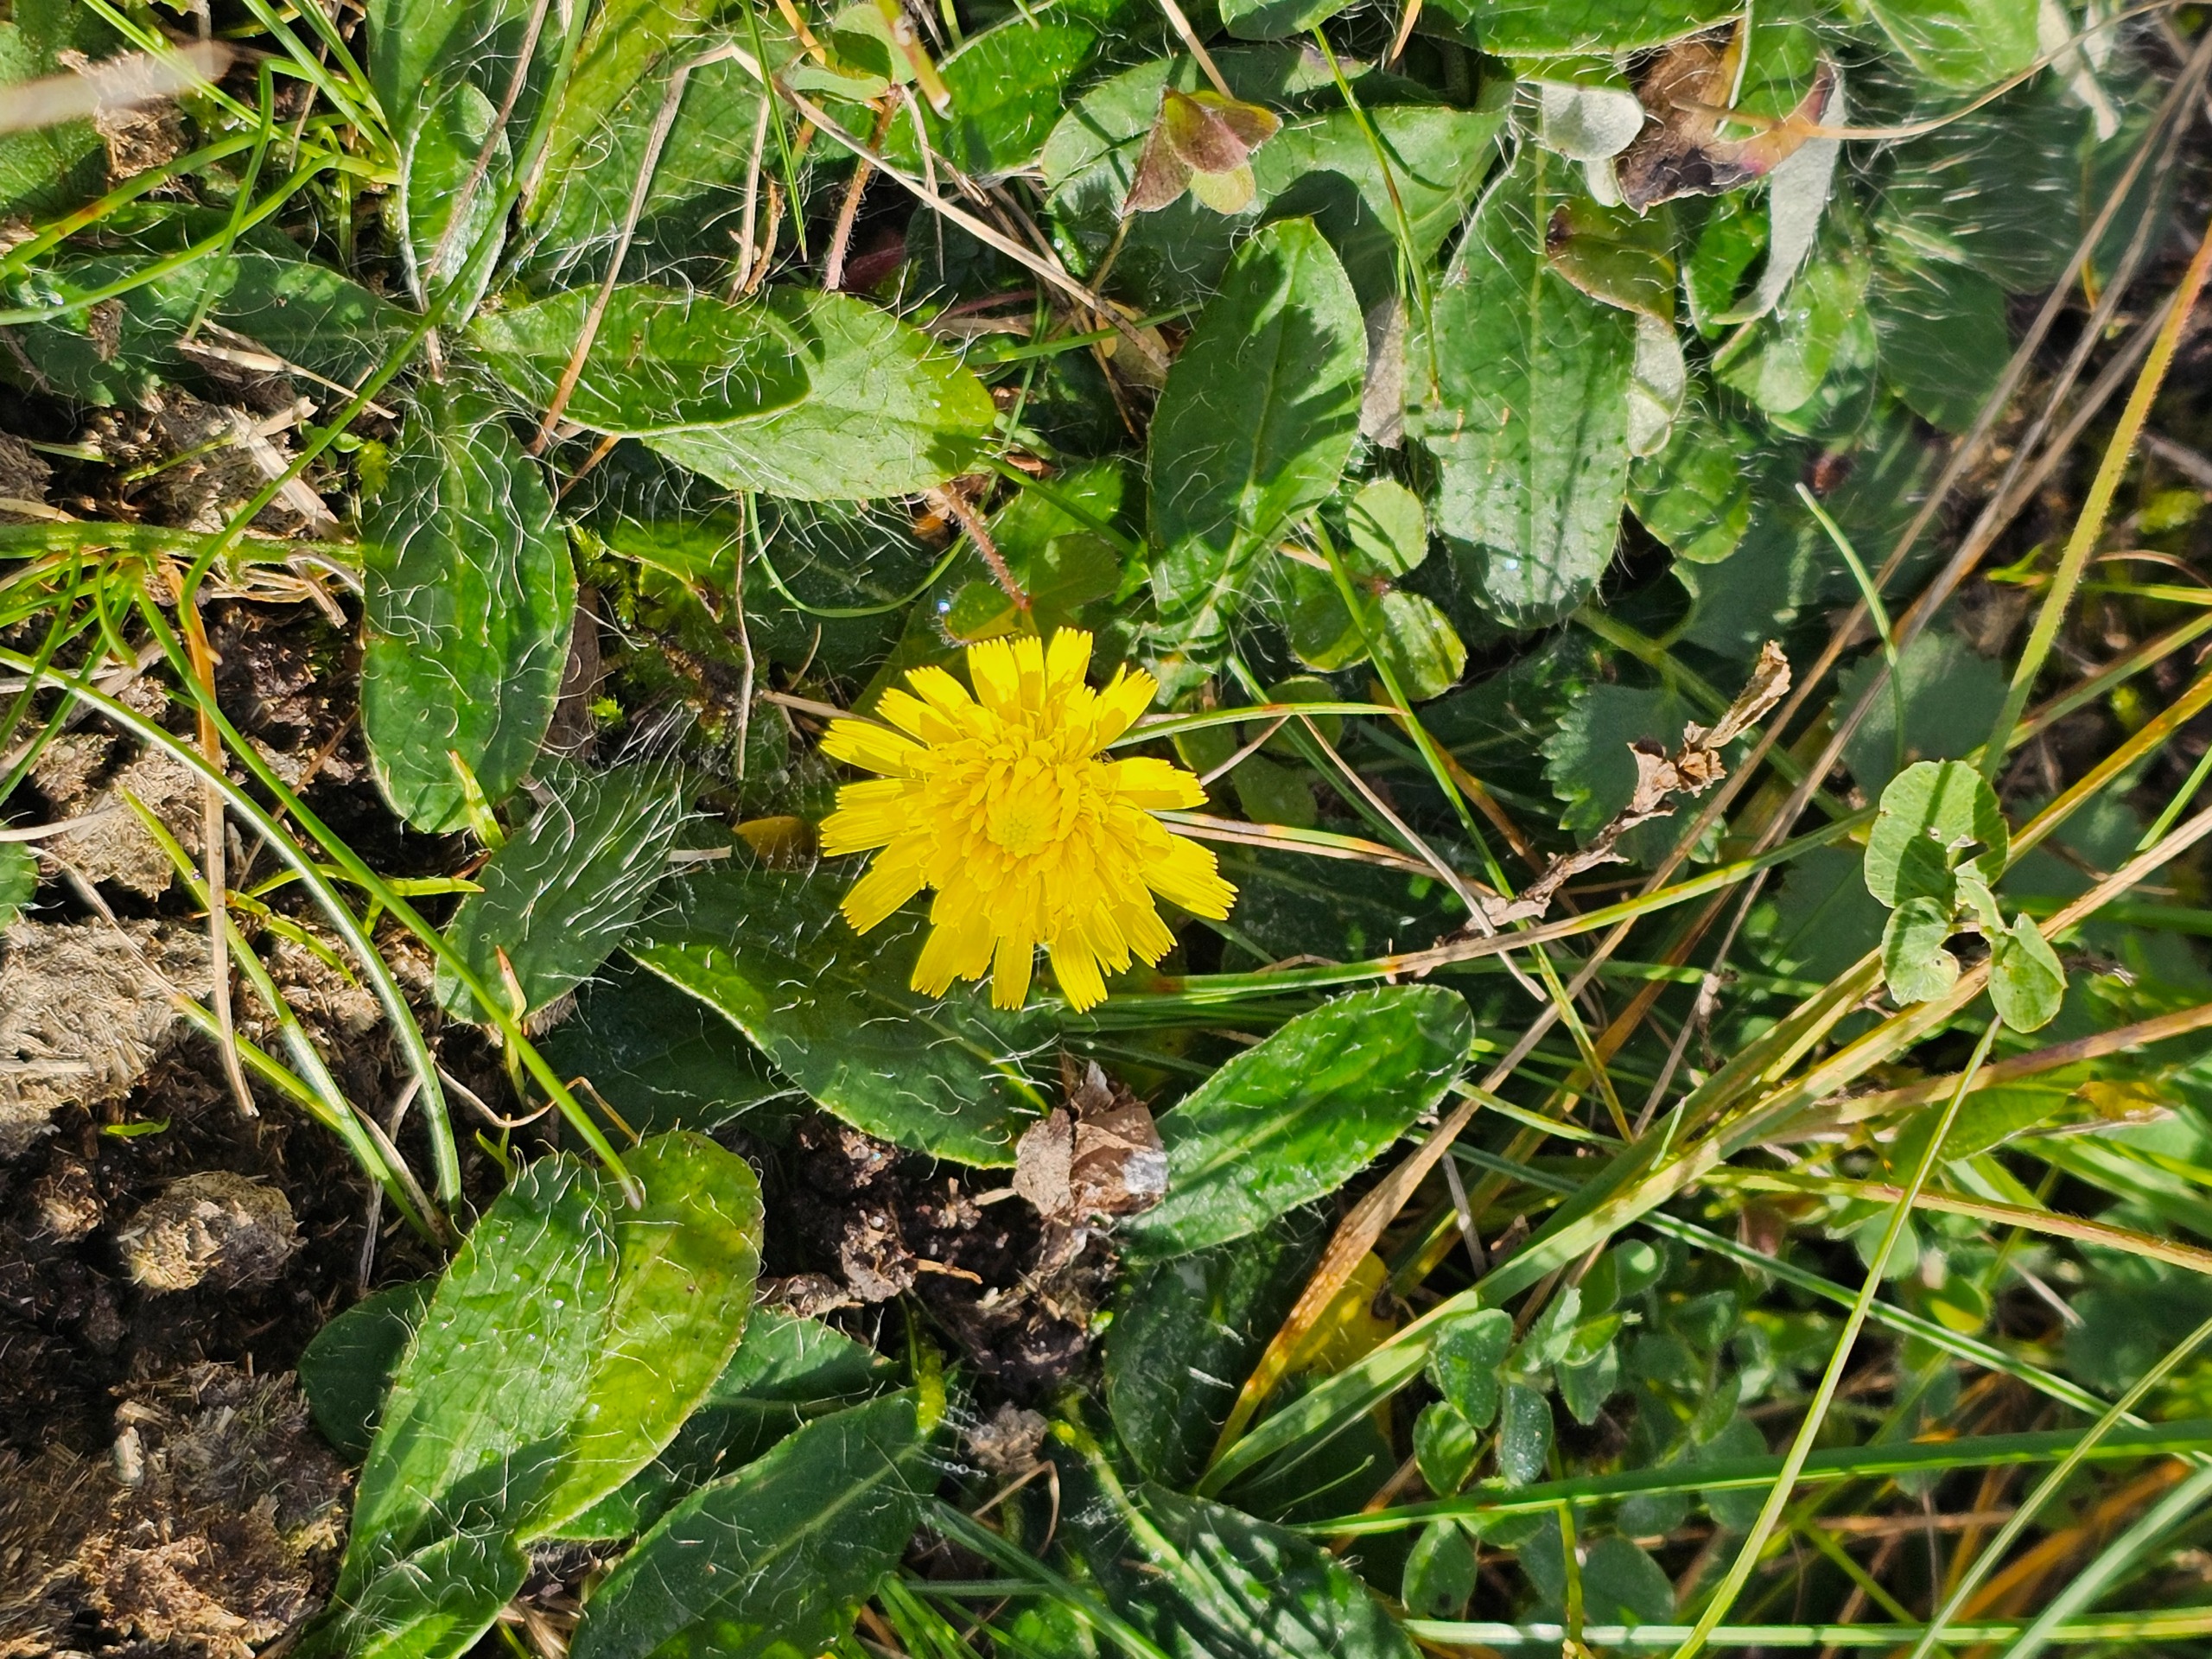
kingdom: Plantae
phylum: Tracheophyta
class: Magnoliopsida
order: Asterales
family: Asteraceae
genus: Pilosella
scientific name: Pilosella officinarum
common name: Håret høgeurt
